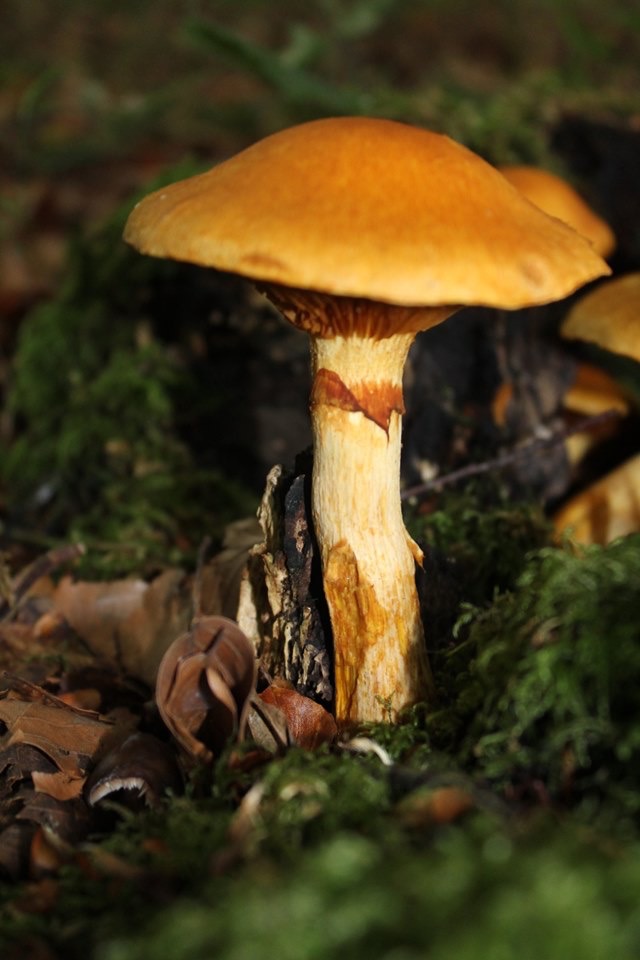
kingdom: Fungi
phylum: Basidiomycota
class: Agaricomycetes
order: Agaricales
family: Hymenogastraceae
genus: Gymnopilus
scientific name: Gymnopilus spectabilis
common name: fibret flammehat
